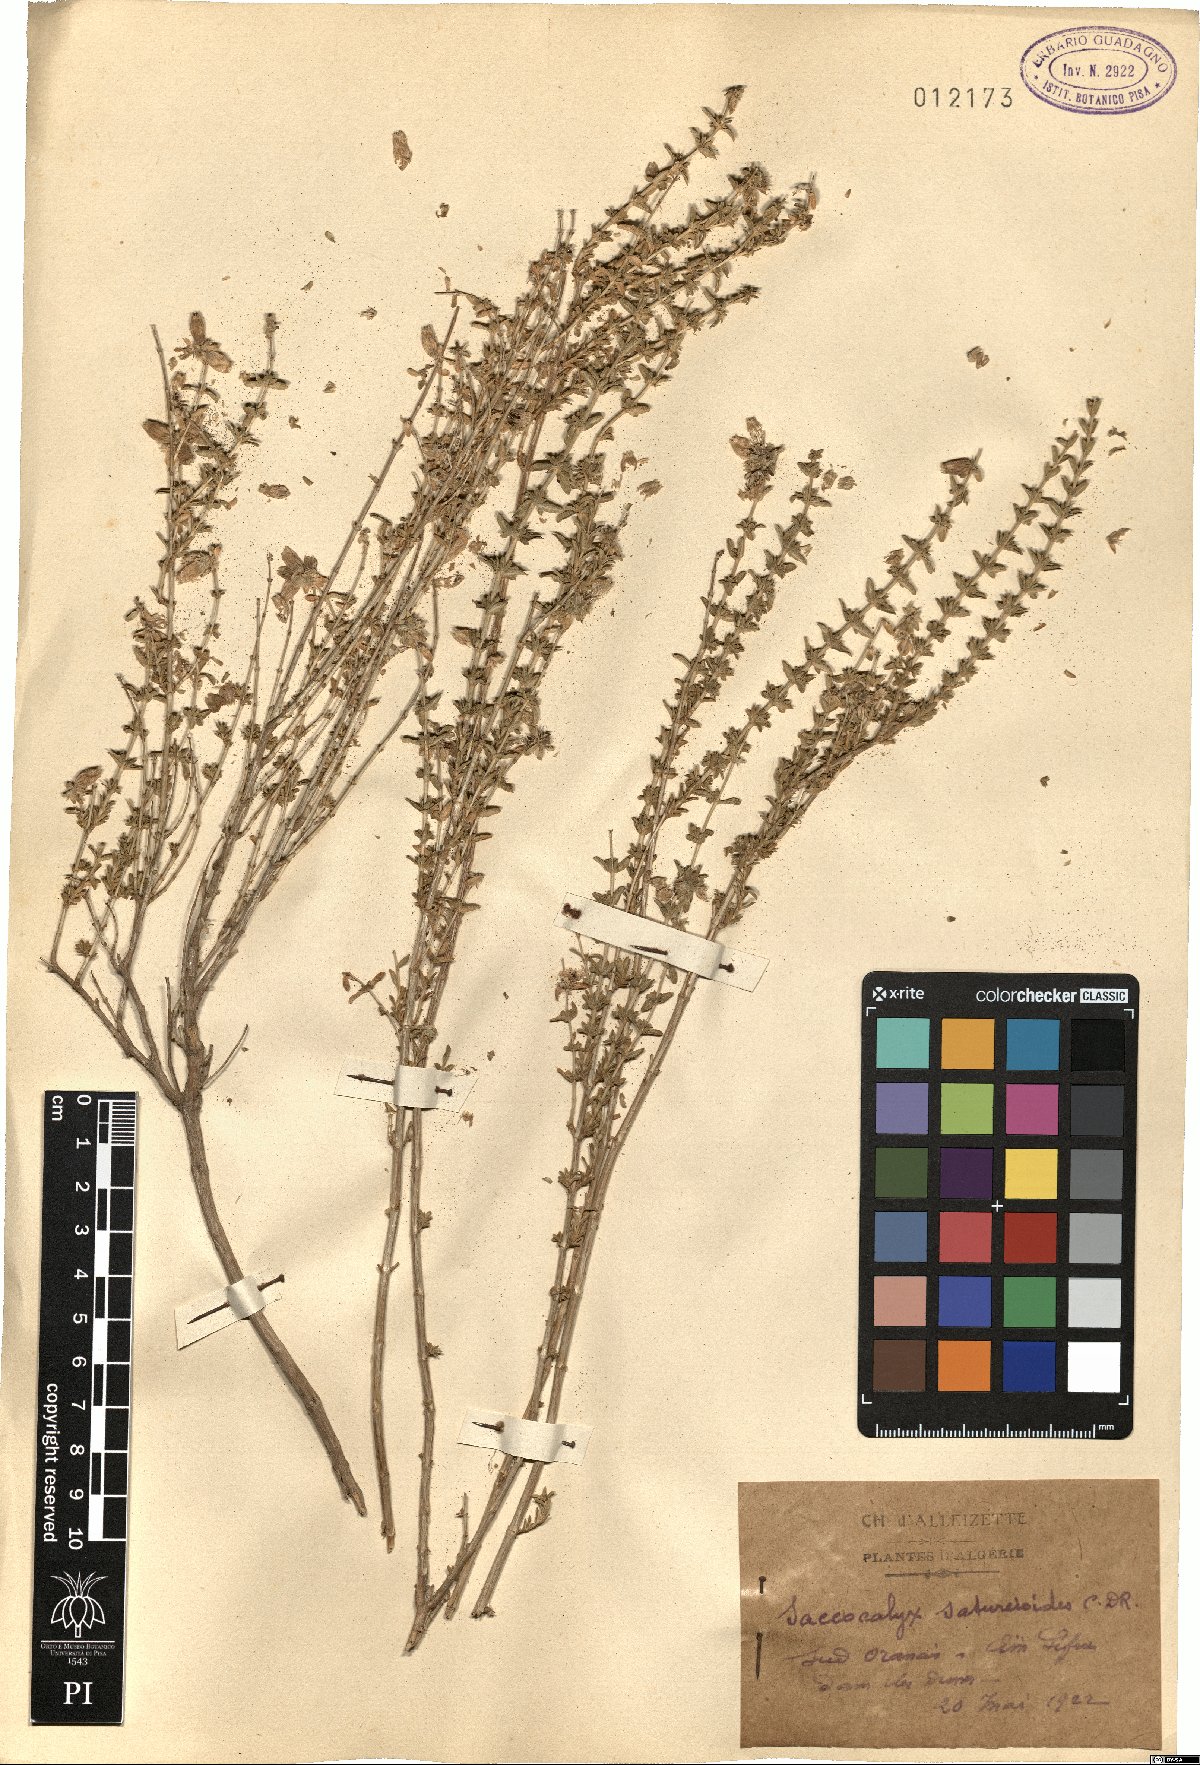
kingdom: Plantae
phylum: Tracheophyta
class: Magnoliopsida
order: Lamiales
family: Lamiaceae
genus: Saccocalyx
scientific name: Saccocalyx saturejoides
